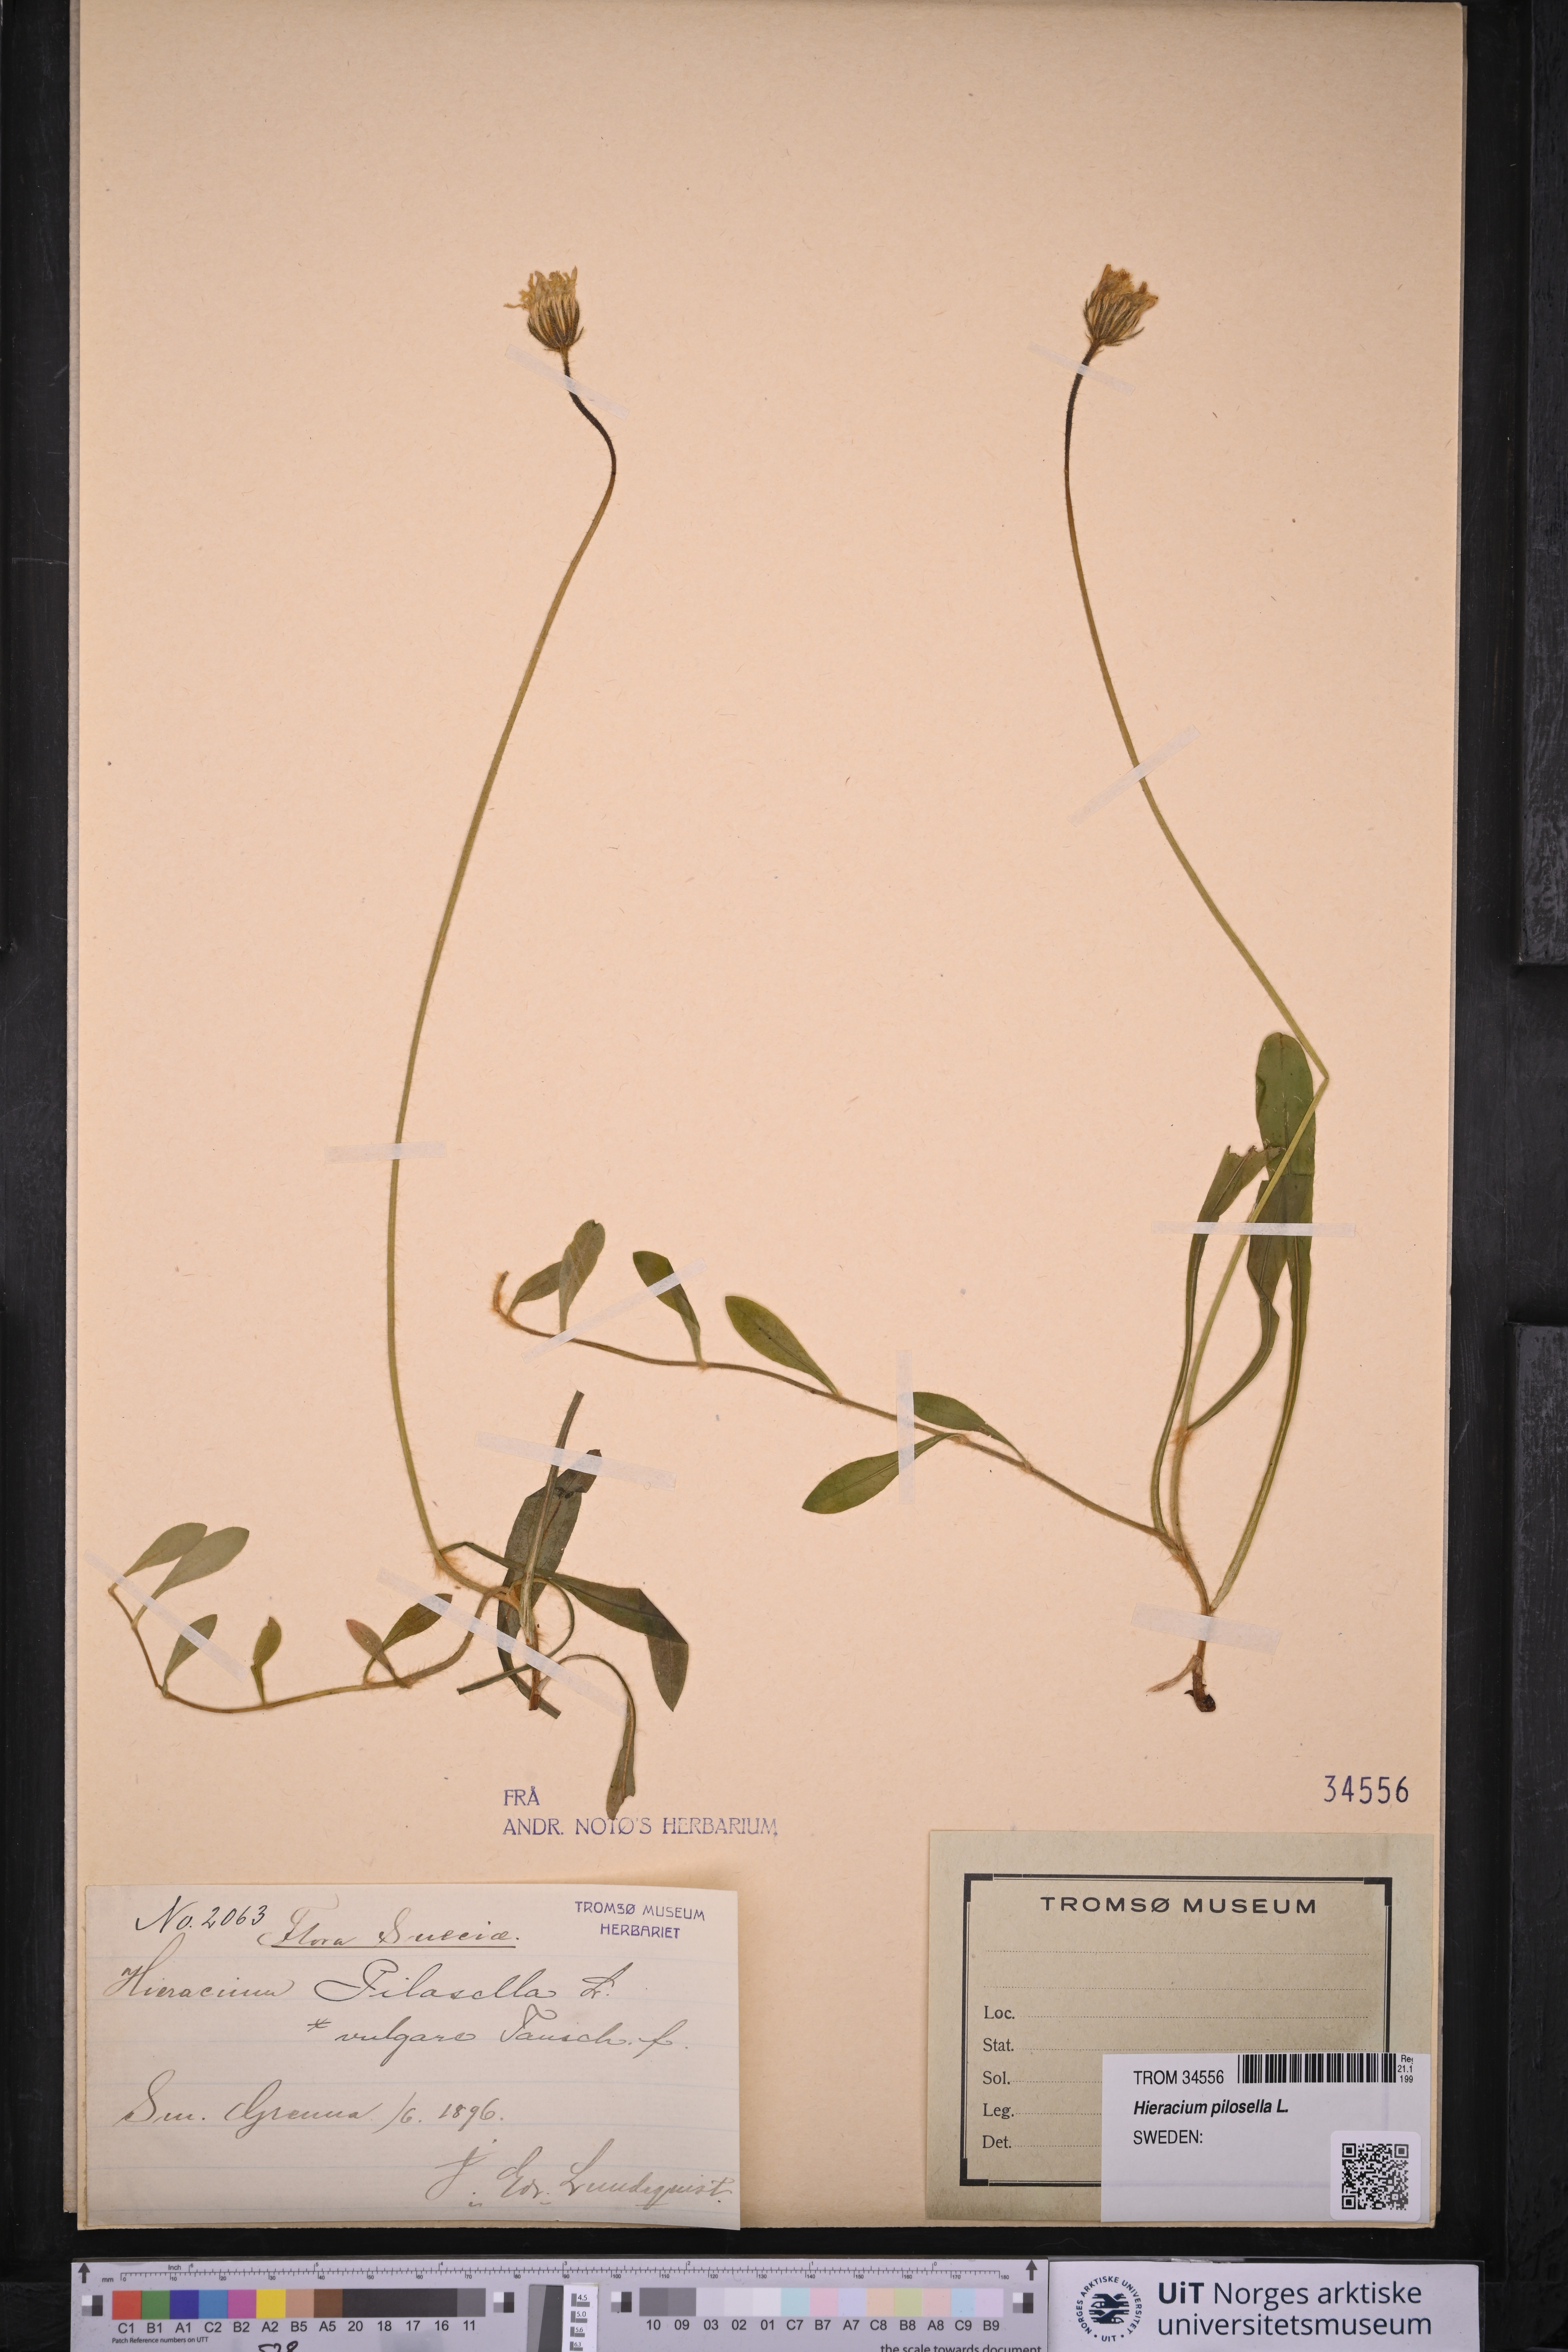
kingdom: Plantae
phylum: Tracheophyta
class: Magnoliopsida
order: Asterales
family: Asteraceae
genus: Pilosella
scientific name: Pilosella officinarum
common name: Mouse-ear hawkweed
